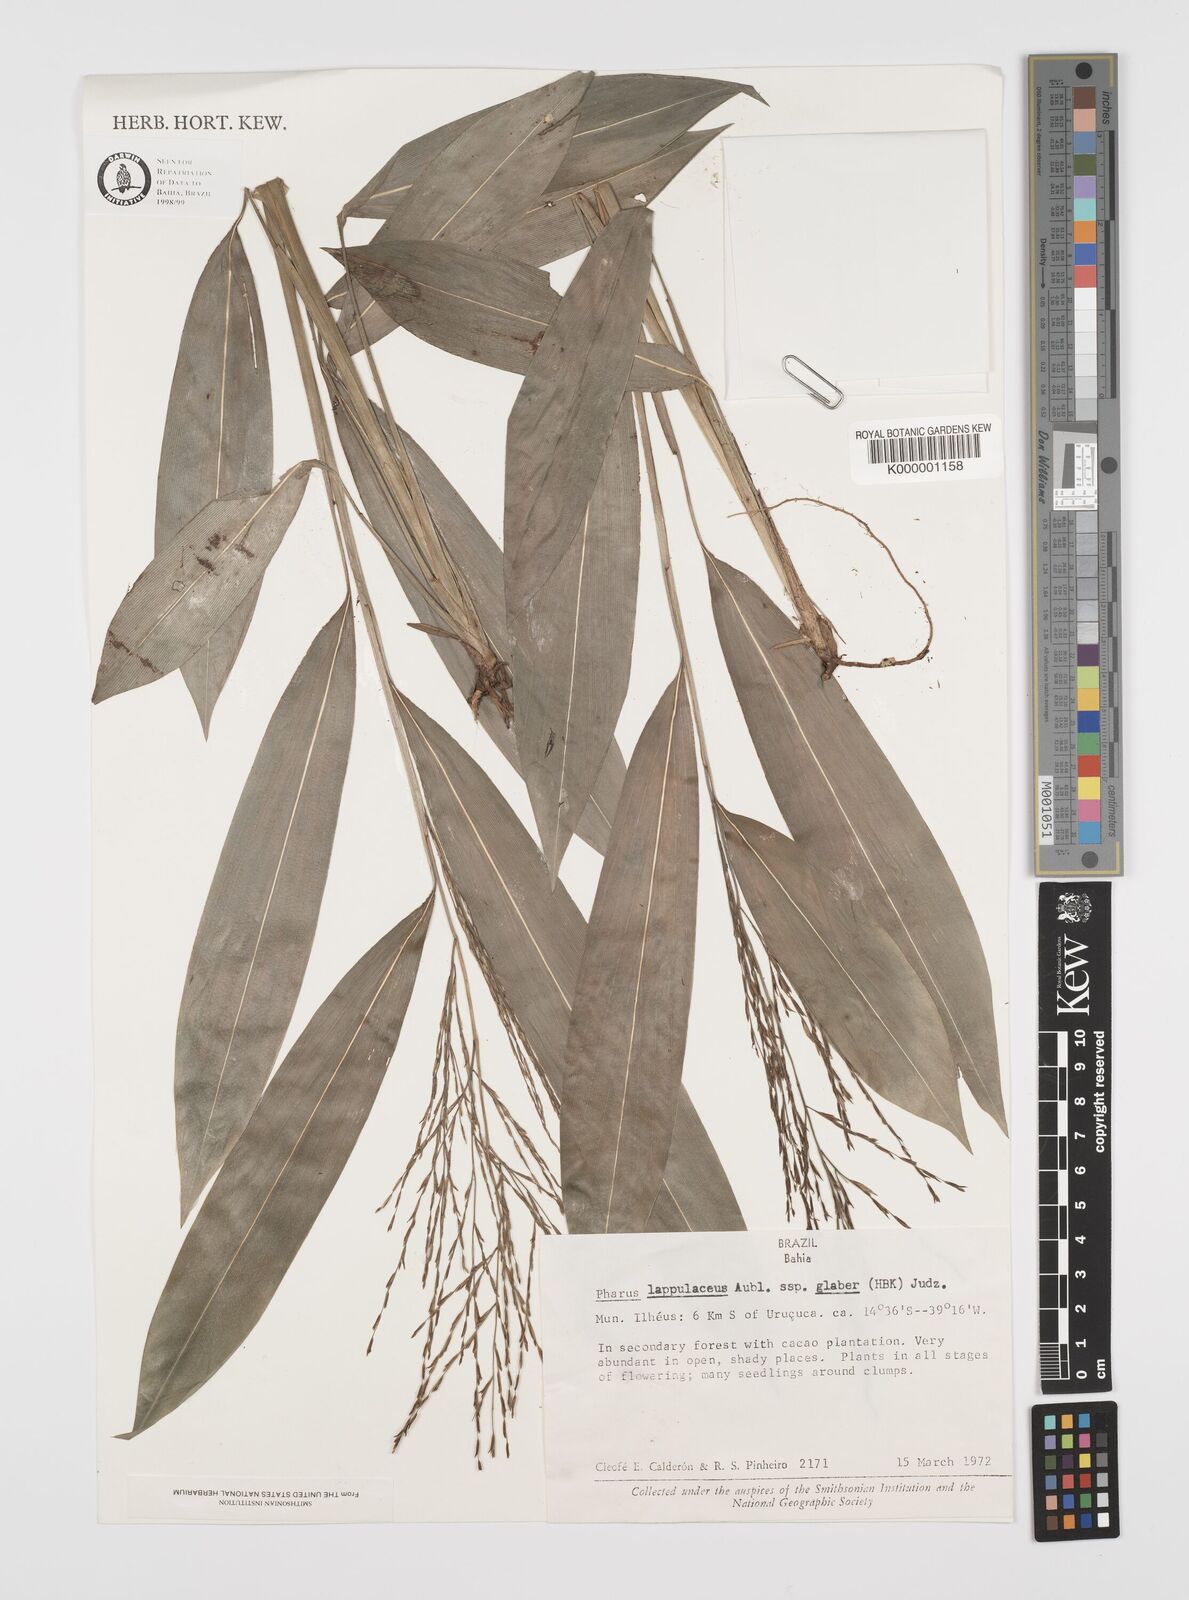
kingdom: Plantae
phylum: Tracheophyta
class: Liliopsida
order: Poales
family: Poaceae
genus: Pharus
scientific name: Pharus lappulaceus
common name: Creeping leafstalk grass
